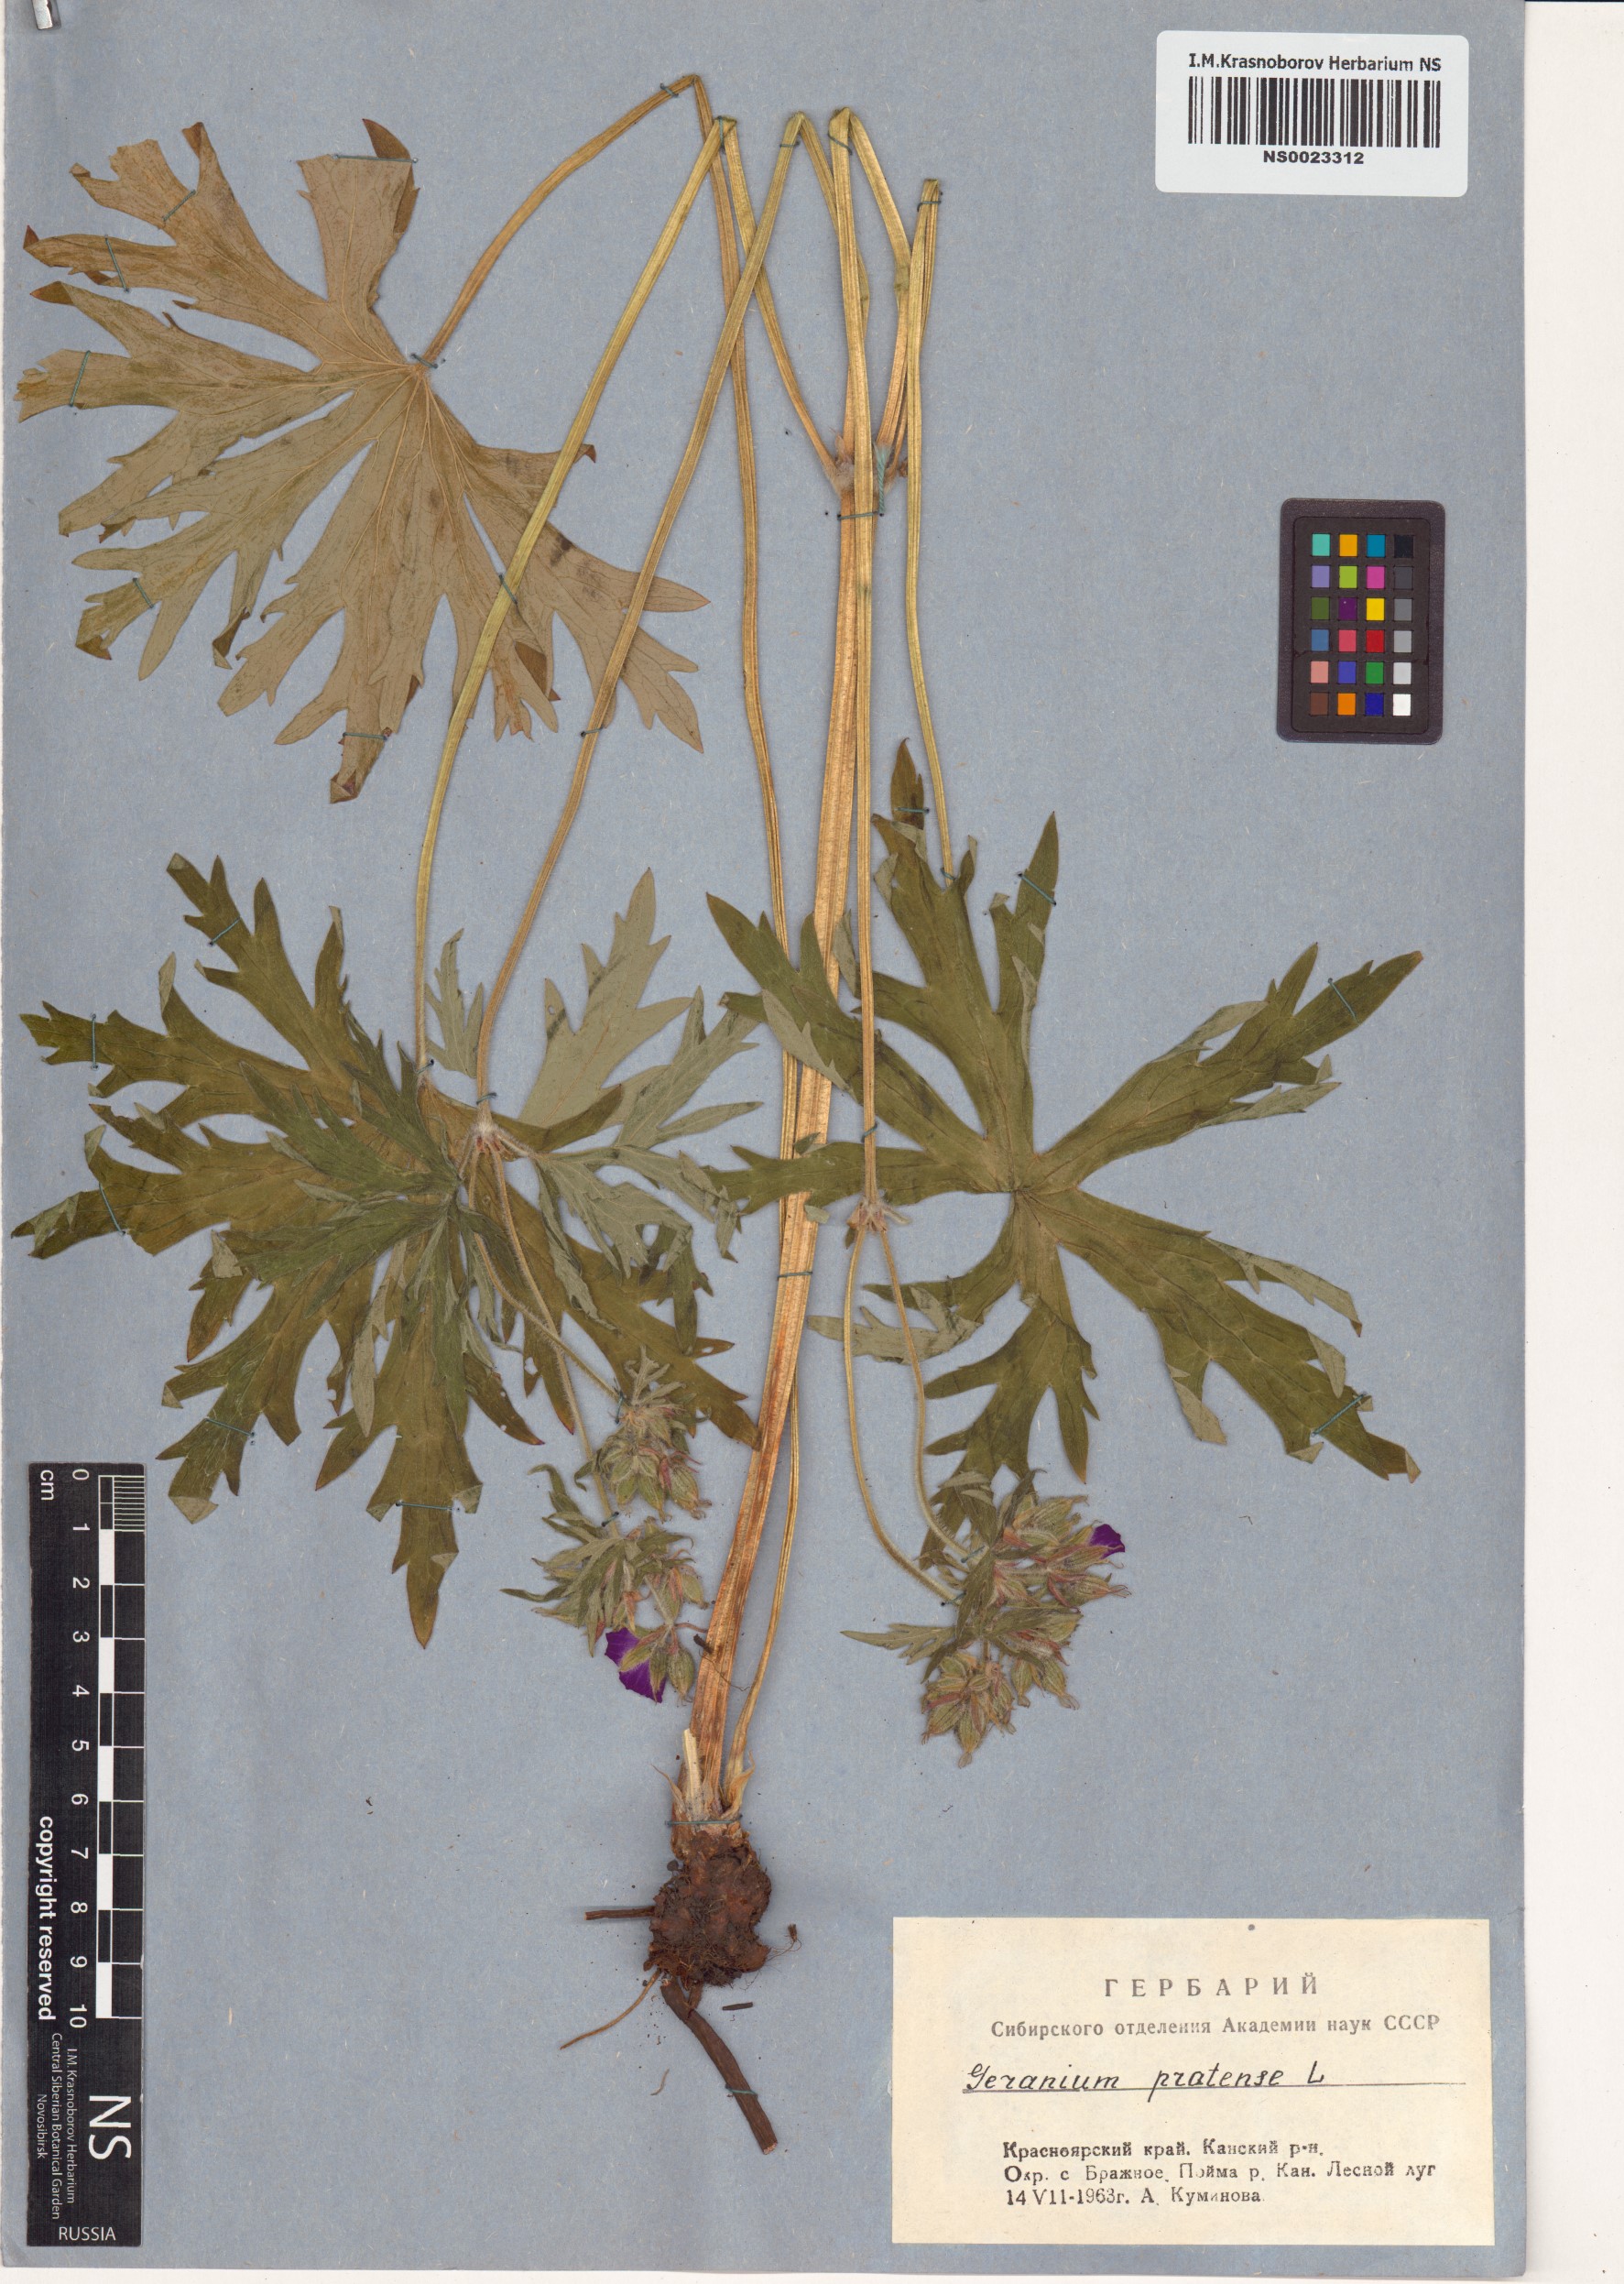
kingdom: Plantae
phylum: Tracheophyta
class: Magnoliopsida
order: Geraniales
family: Geraniaceae
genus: Geranium
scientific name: Geranium pratense
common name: Meadow crane's-bill
